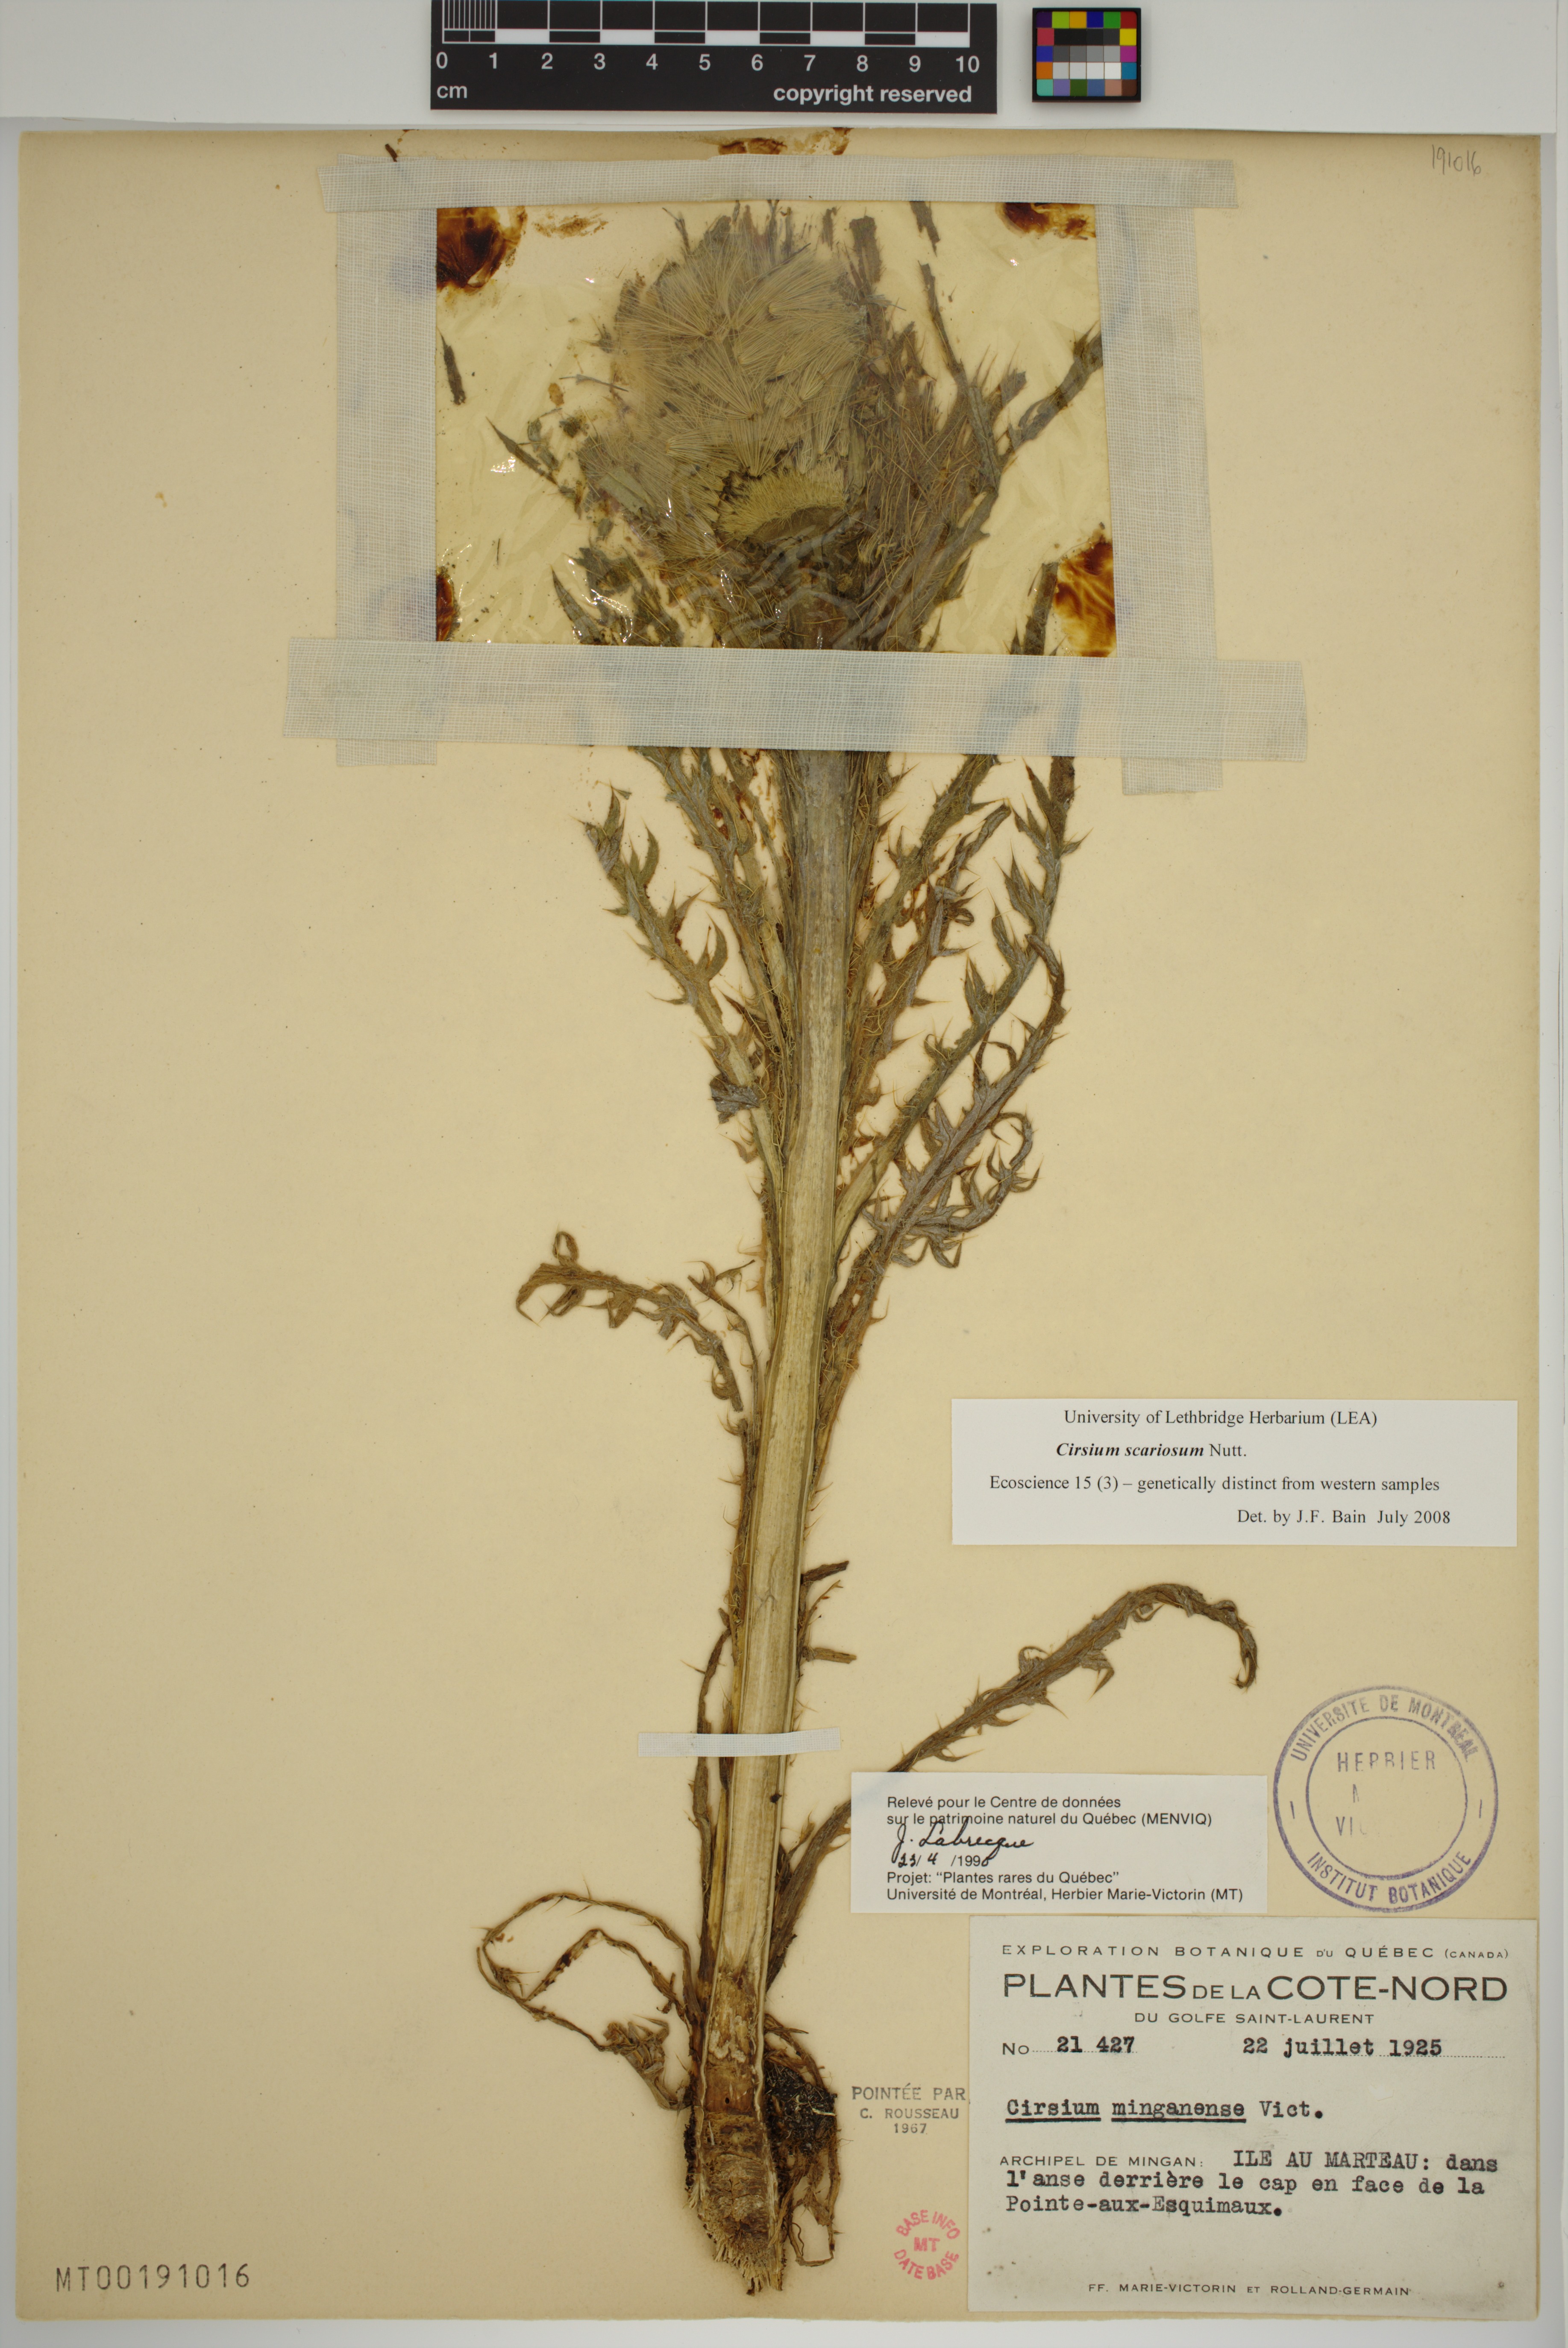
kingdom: Plantae
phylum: Tracheophyta
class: Magnoliopsida
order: Asterales
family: Asteraceae
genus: Cirsium
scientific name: Cirsium scariosum
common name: Meadow thistle
